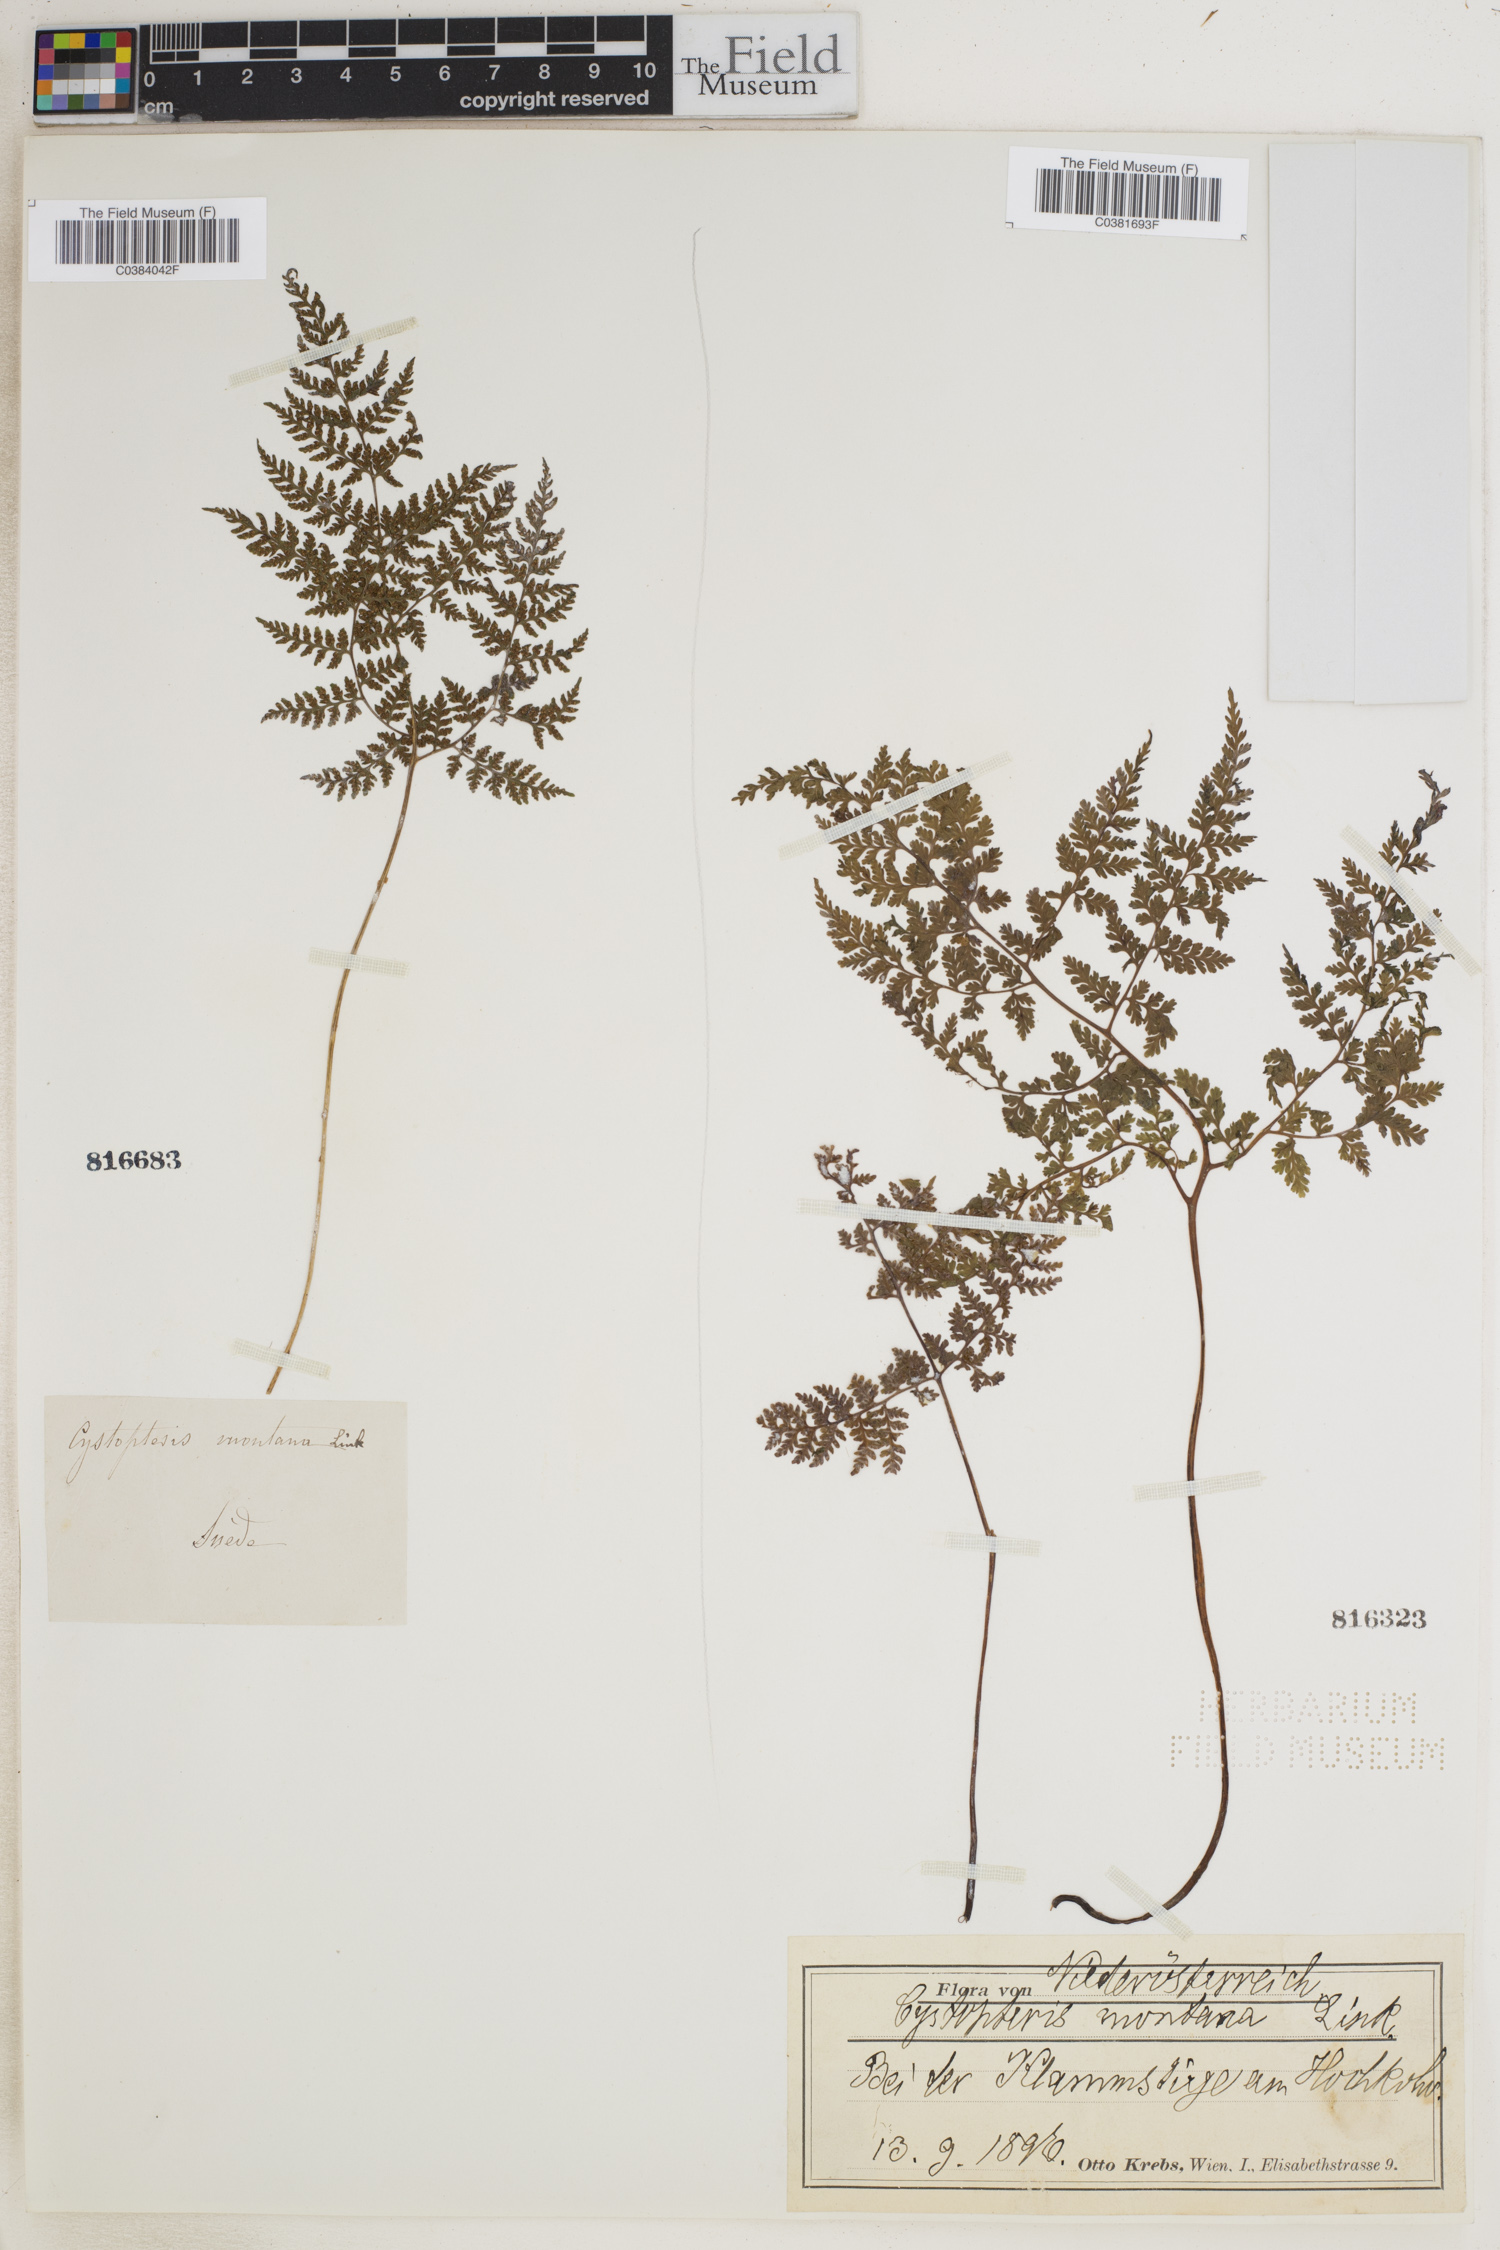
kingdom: Plantae
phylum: Tracheophyta
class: Polypodiopsida
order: Polypodiales
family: Cystopteridaceae
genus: Cystopteris
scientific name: Cystopteris montana
